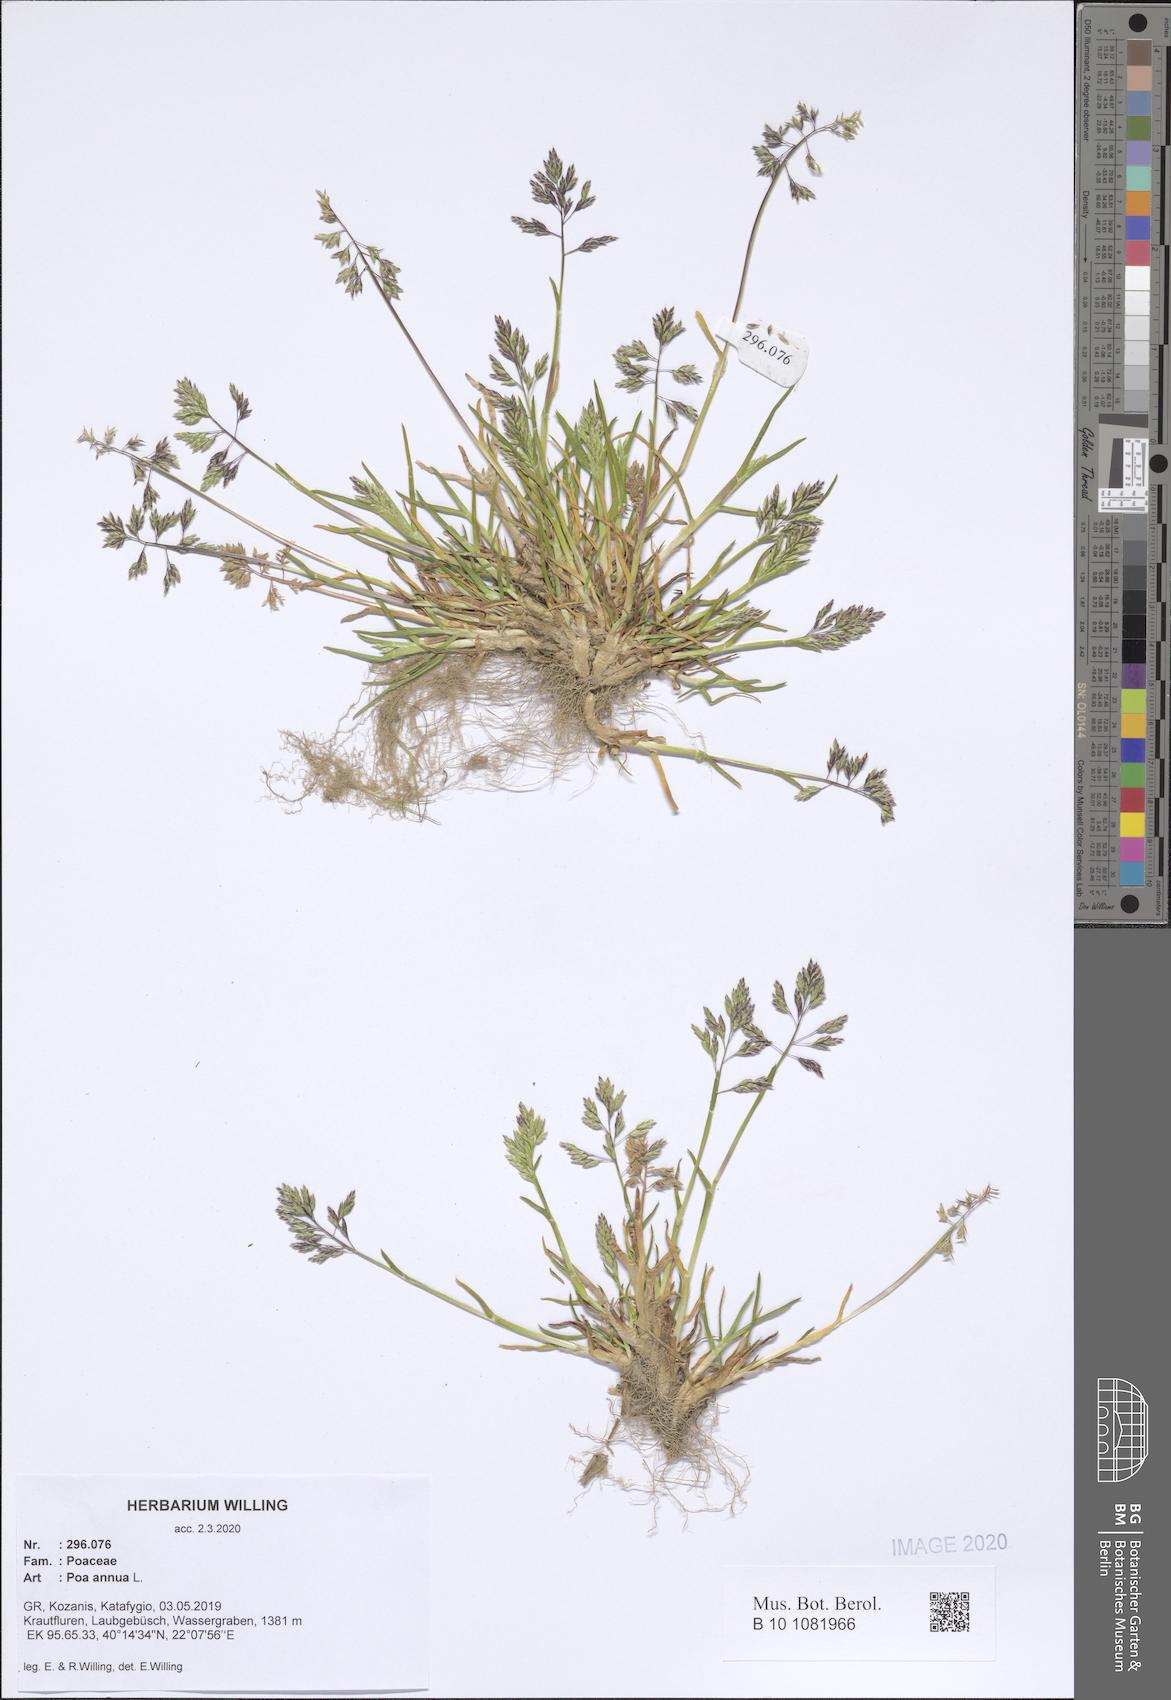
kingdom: Plantae
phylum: Tracheophyta
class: Liliopsida
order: Poales
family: Poaceae
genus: Poa
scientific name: Poa annua
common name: Annual bluegrass
